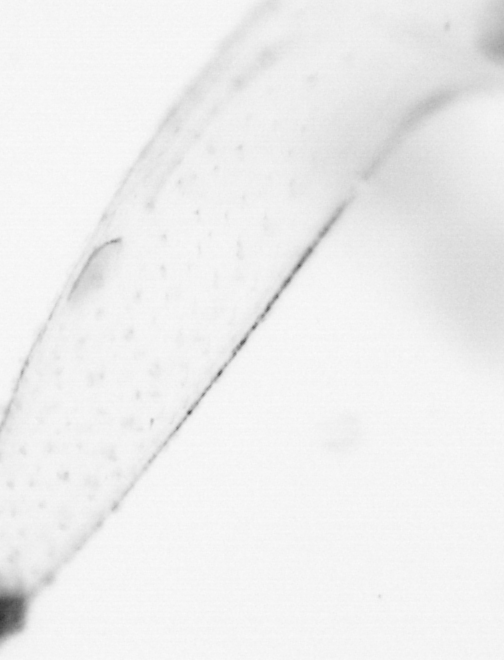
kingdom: Animalia
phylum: Chaetognatha
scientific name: Chaetognatha
